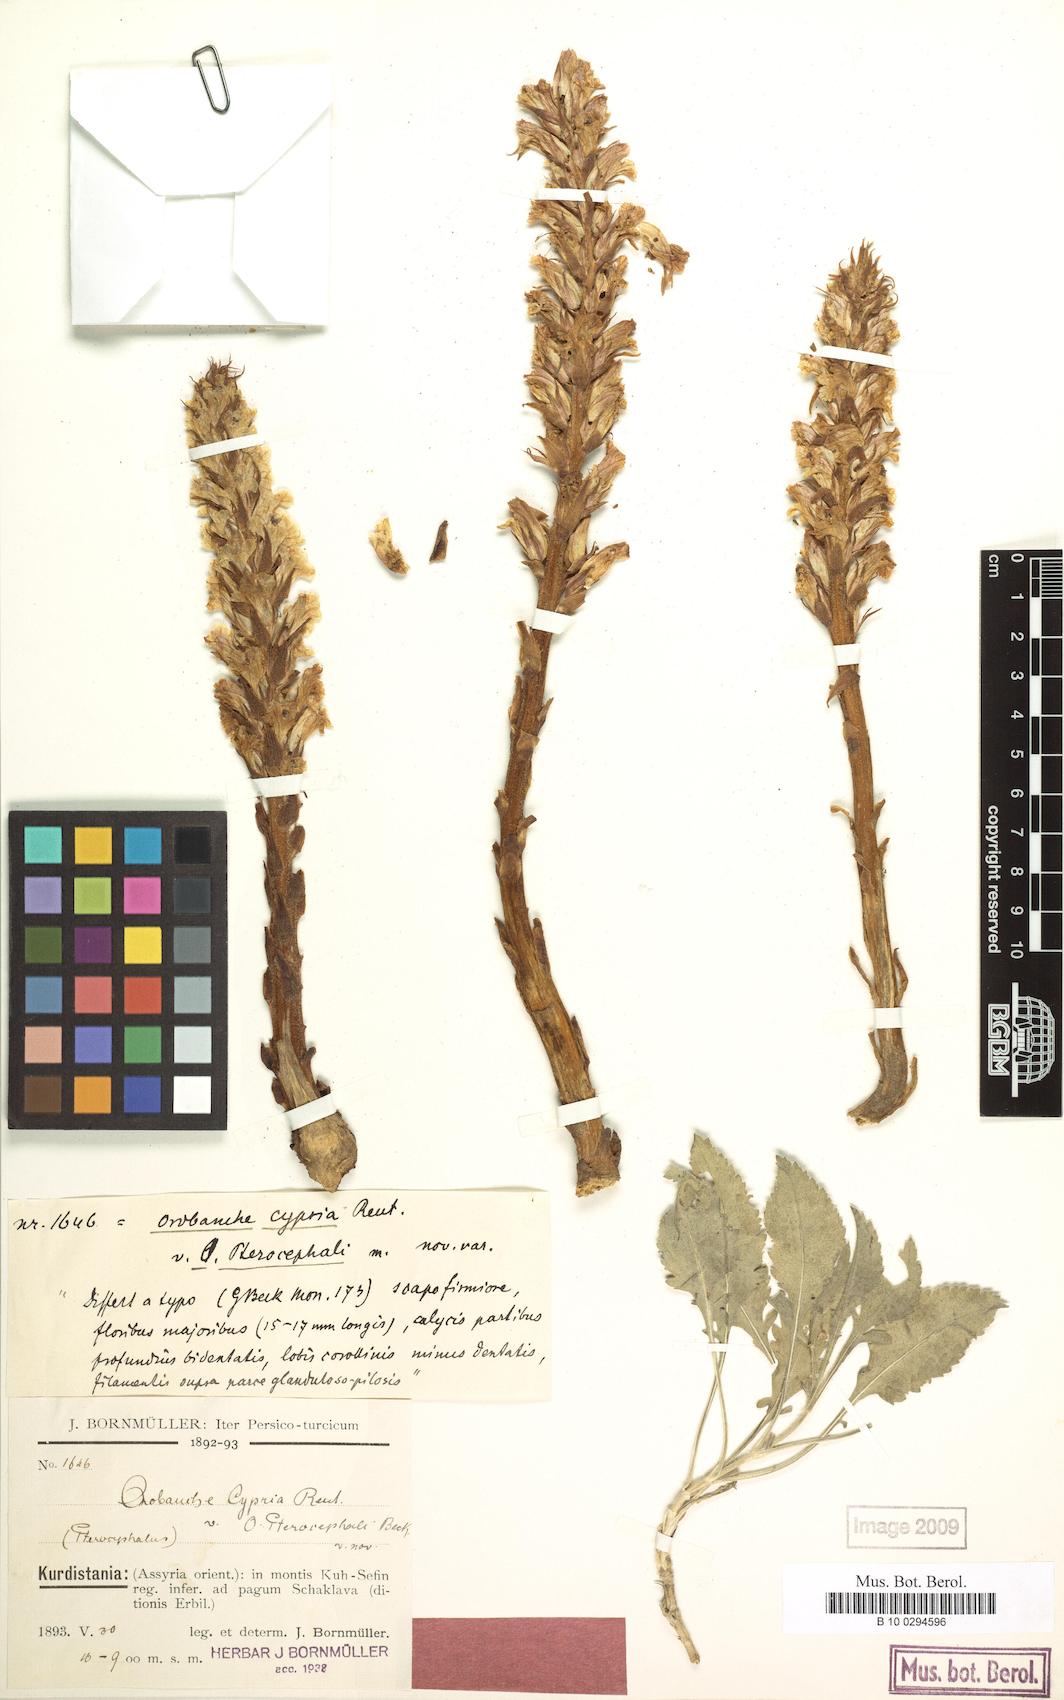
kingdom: Plantae
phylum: Tracheophyta
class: Magnoliopsida
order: Lamiales
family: Orobanchaceae
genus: Orobanche
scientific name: Orobanche cypria
